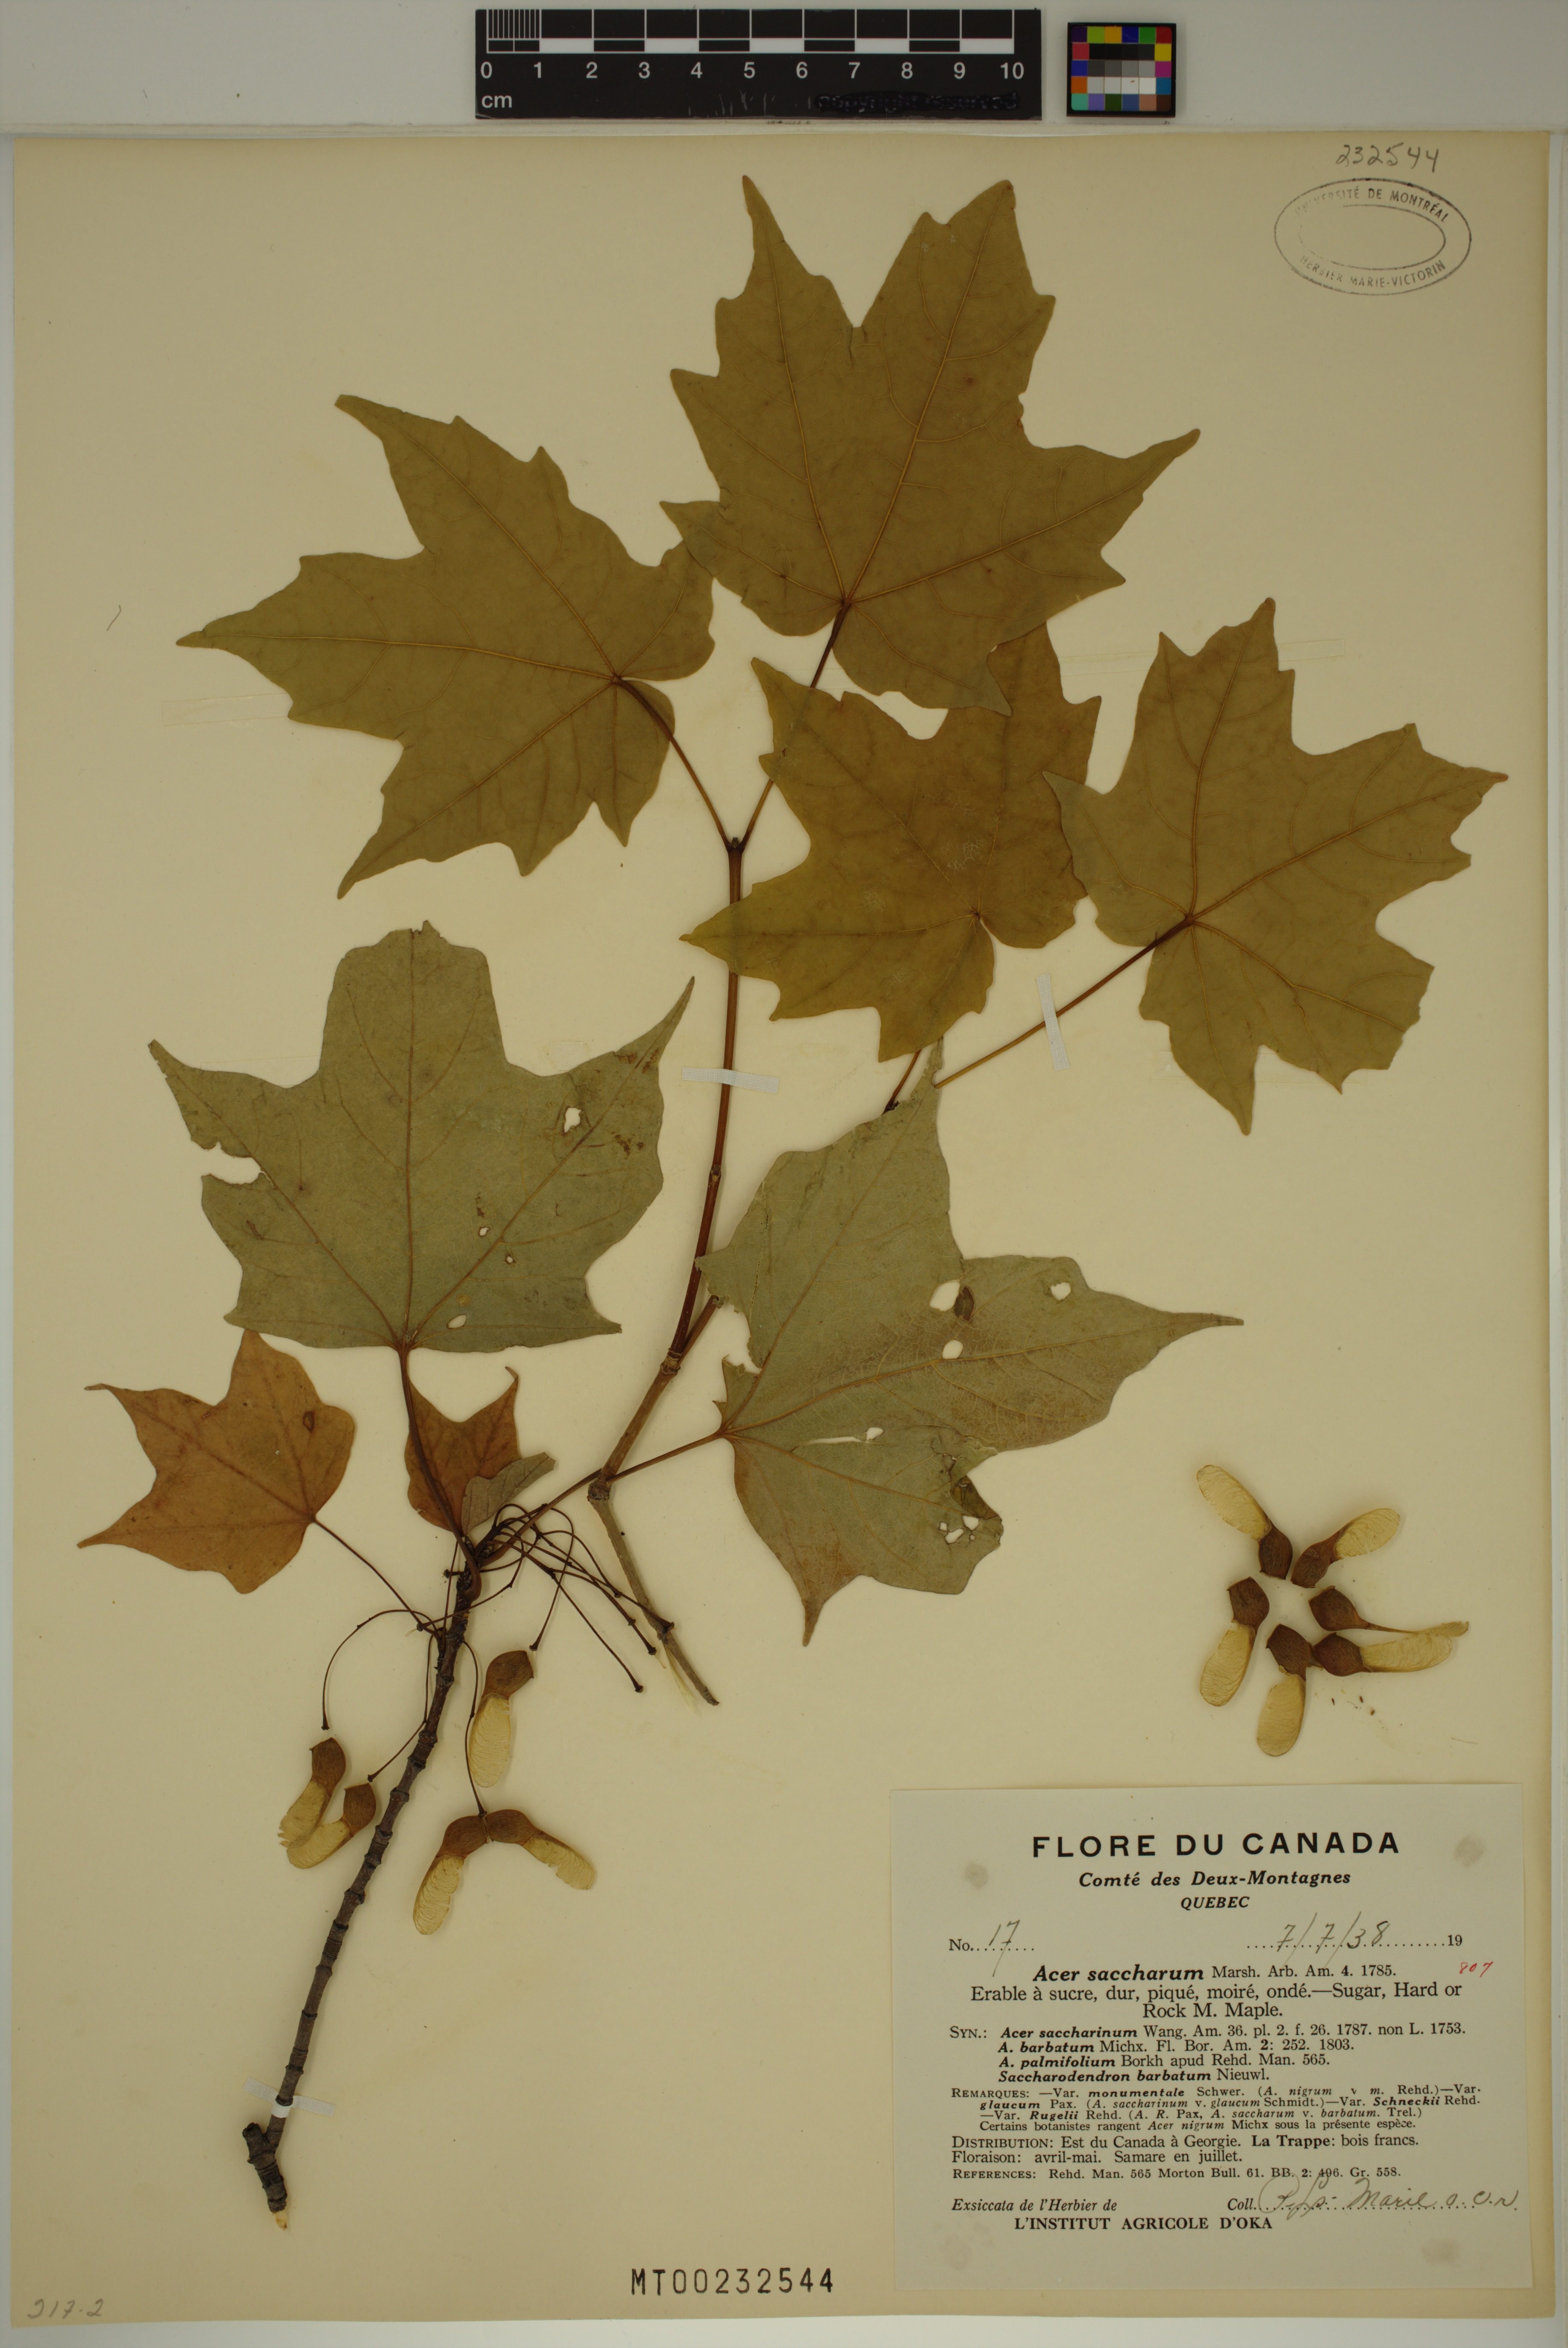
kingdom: Plantae
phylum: Tracheophyta
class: Magnoliopsida
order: Sapindales
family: Sapindaceae
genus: Acer
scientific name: Acer saccharum
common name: Sugar maple
